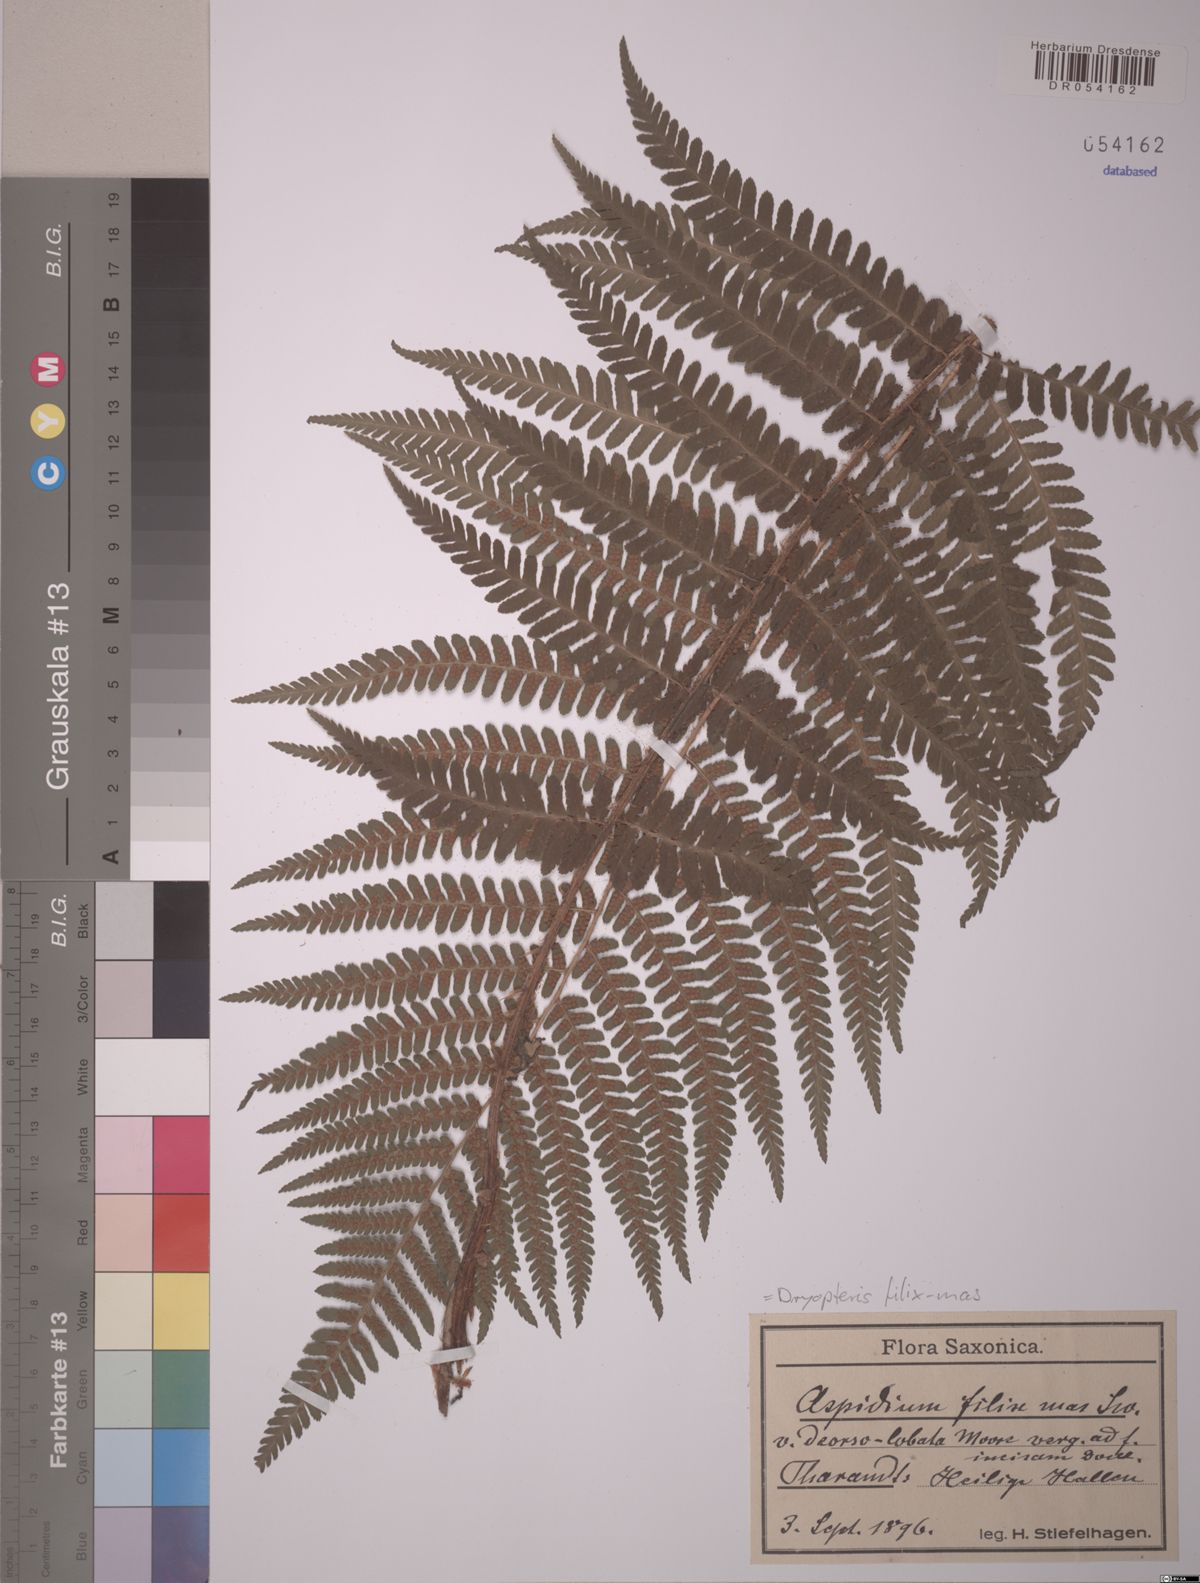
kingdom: Plantae
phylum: Tracheophyta
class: Polypodiopsida
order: Polypodiales
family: Dryopteridaceae
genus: Dryopteris
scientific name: Dryopteris filix-mas
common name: Male fern
